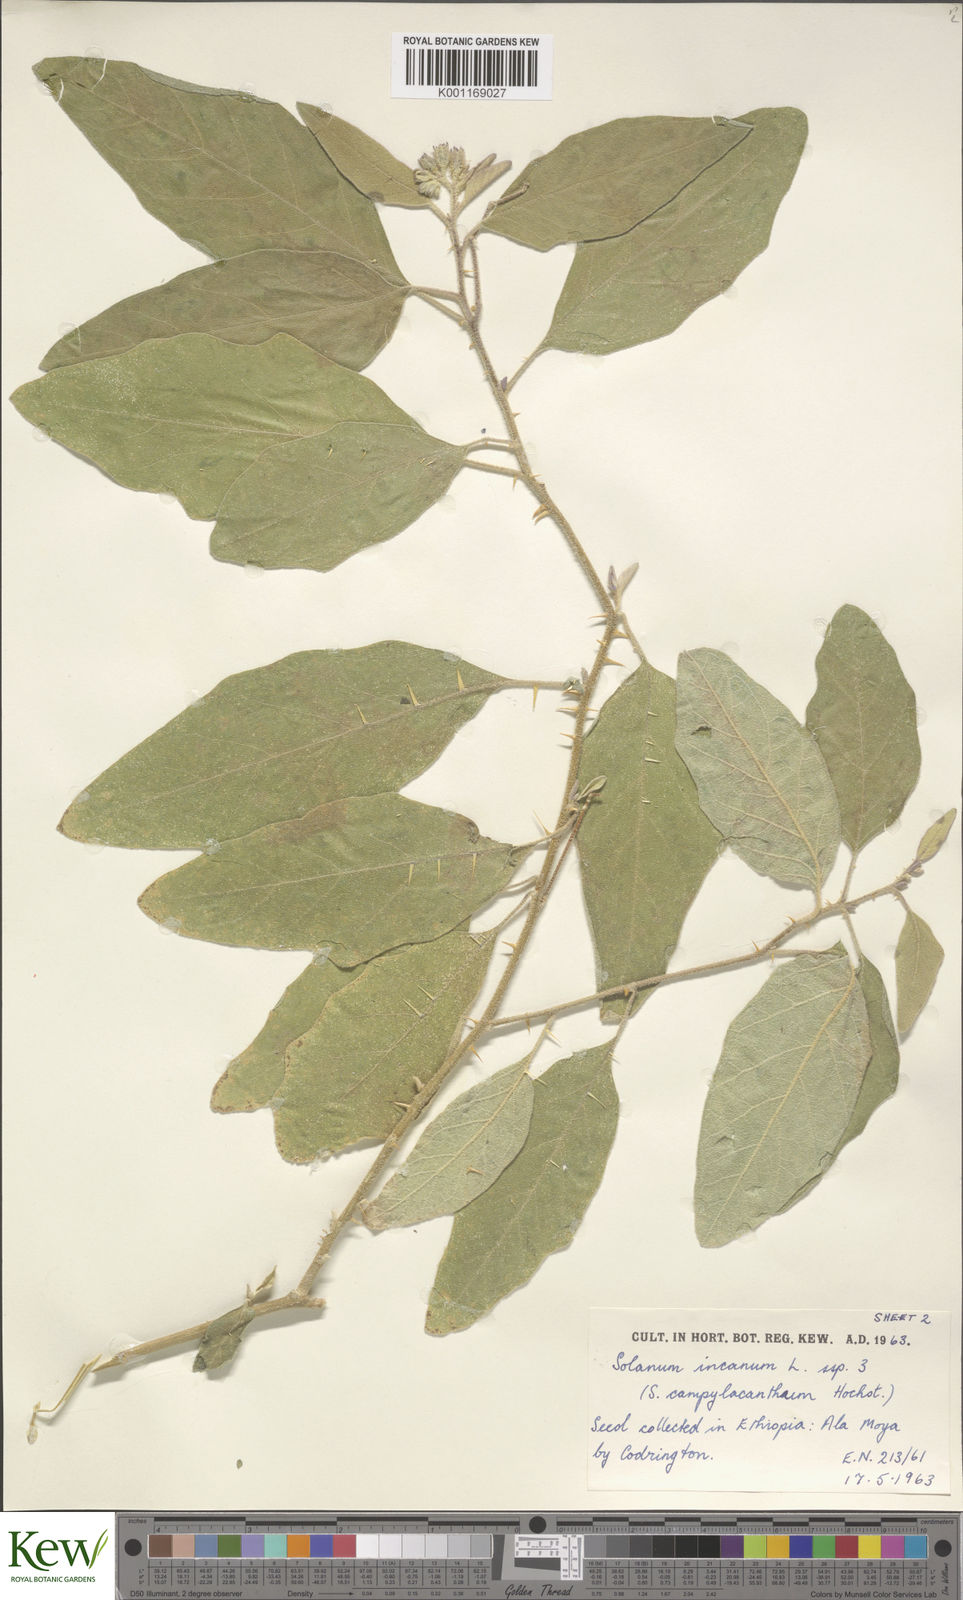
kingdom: Plantae
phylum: Tracheophyta
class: Magnoliopsida
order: Solanales
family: Solanaceae
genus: Solanum
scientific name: Solanum incanum
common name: Bitter apple
